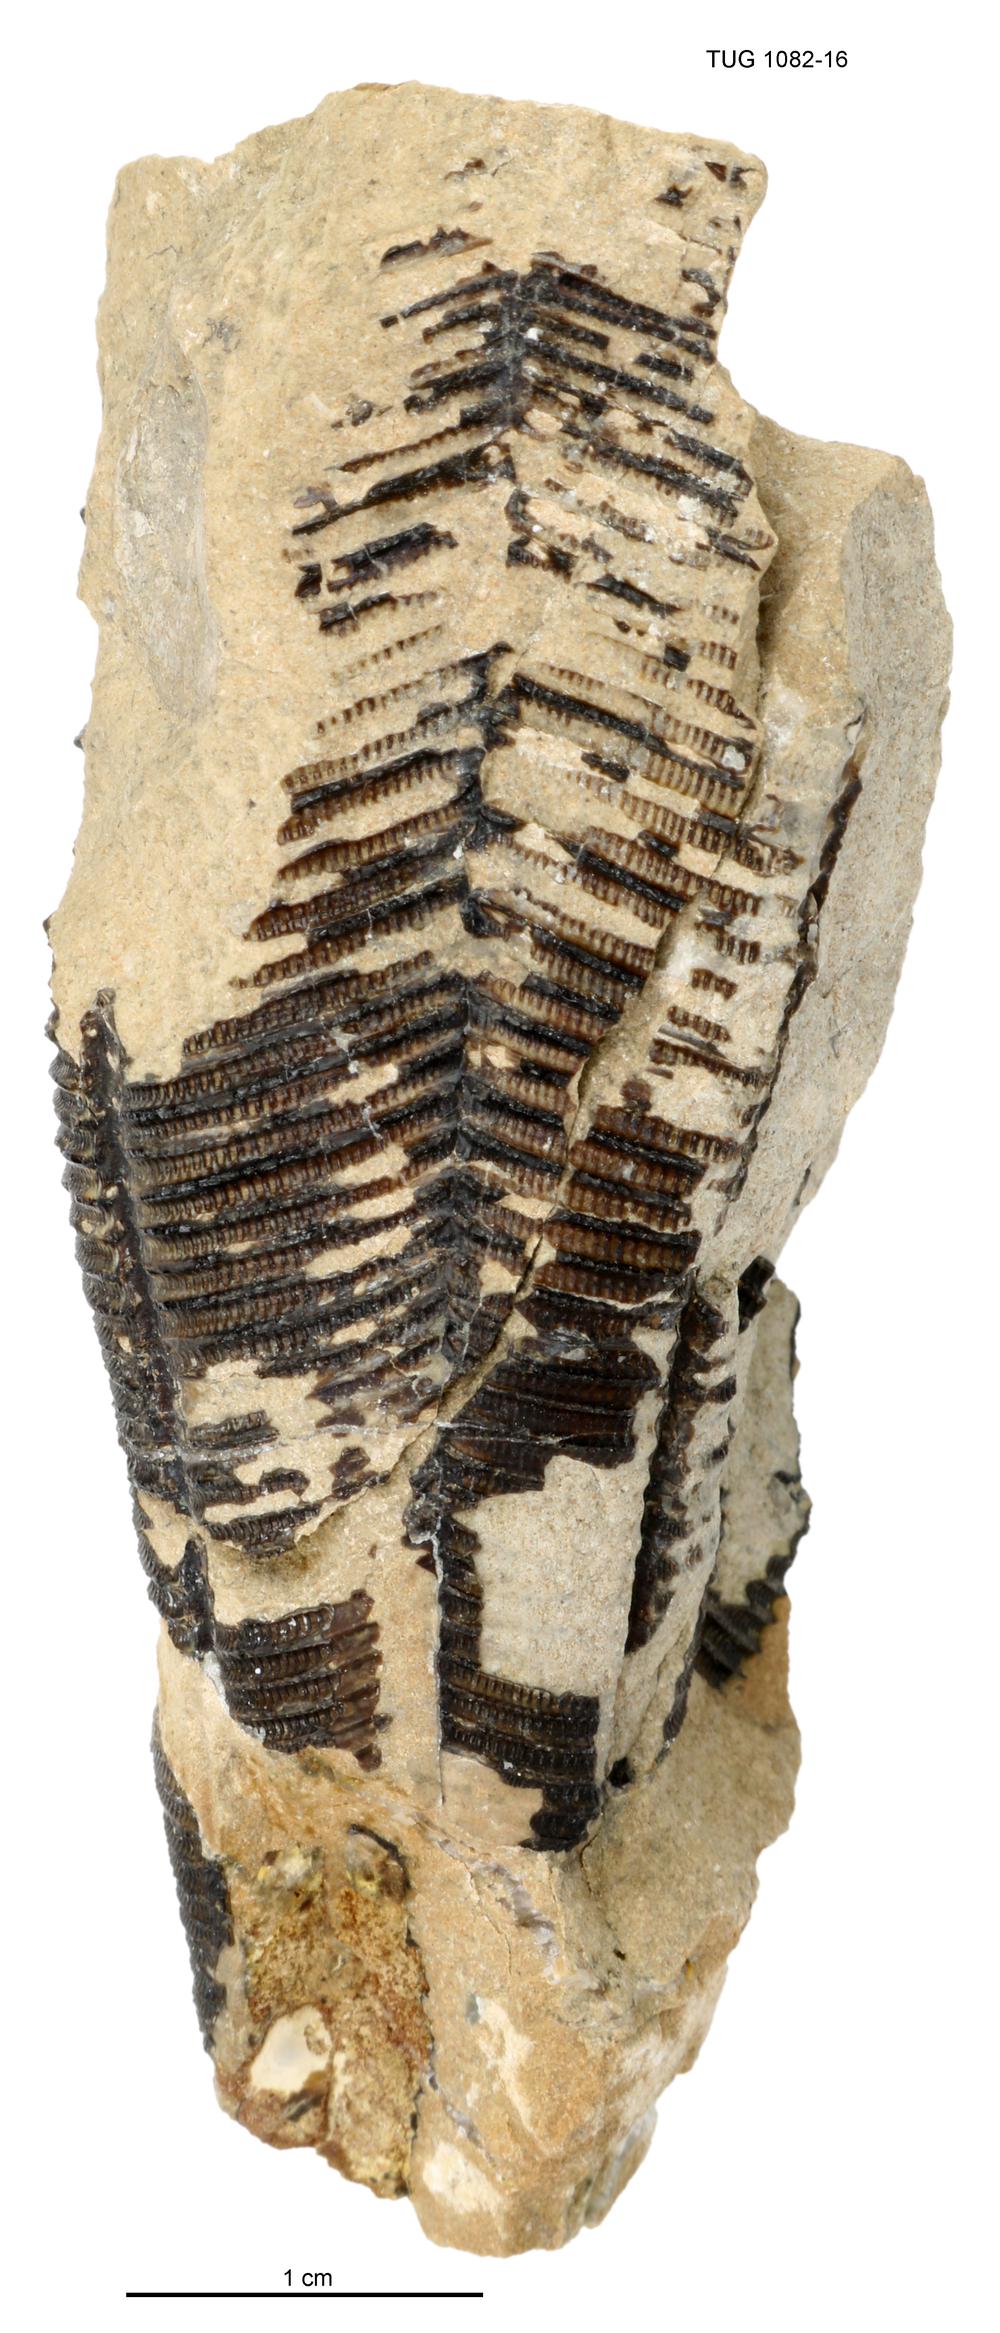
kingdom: Animalia
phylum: Cnidaria
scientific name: Cnidaria
